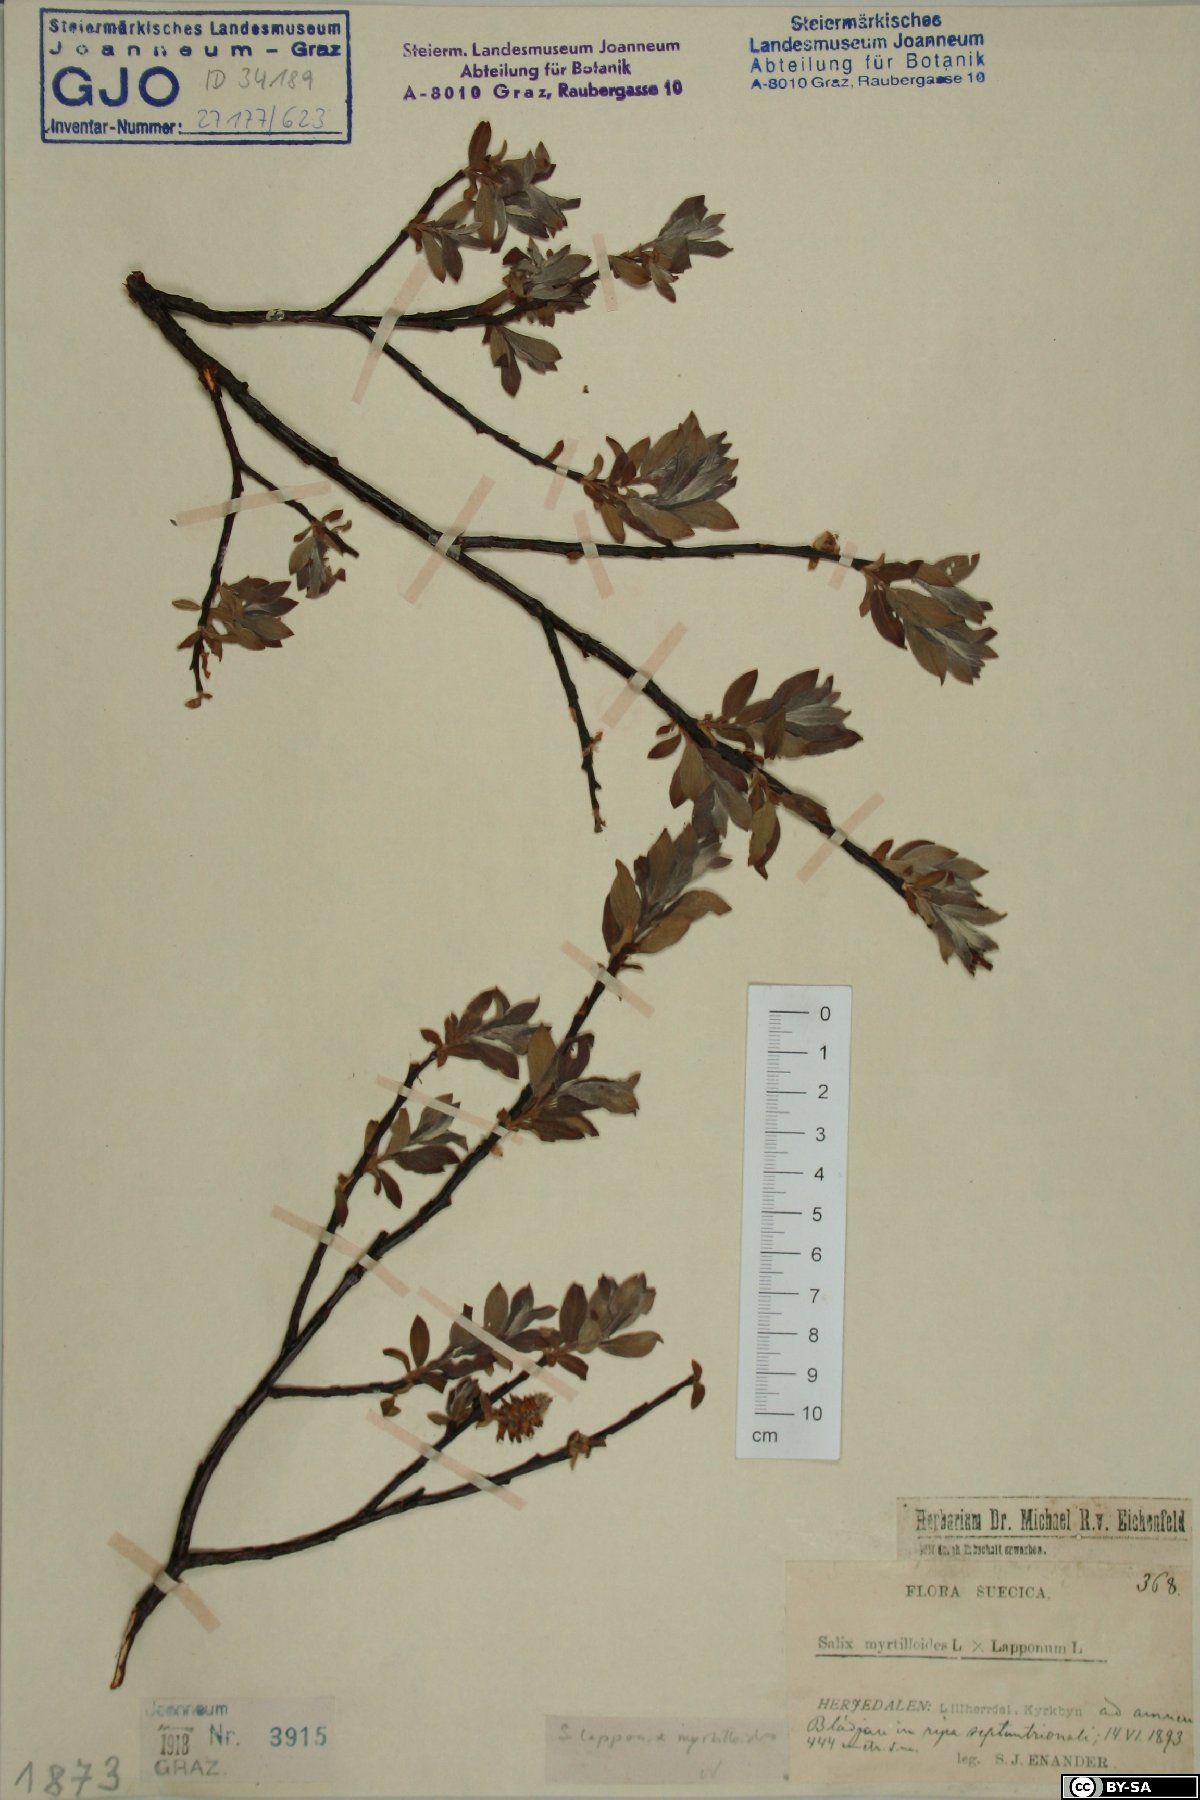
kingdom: Plantae
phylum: Tracheophyta
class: Magnoliopsida
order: Malpighiales
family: Salicaceae
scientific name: Salicaceae
